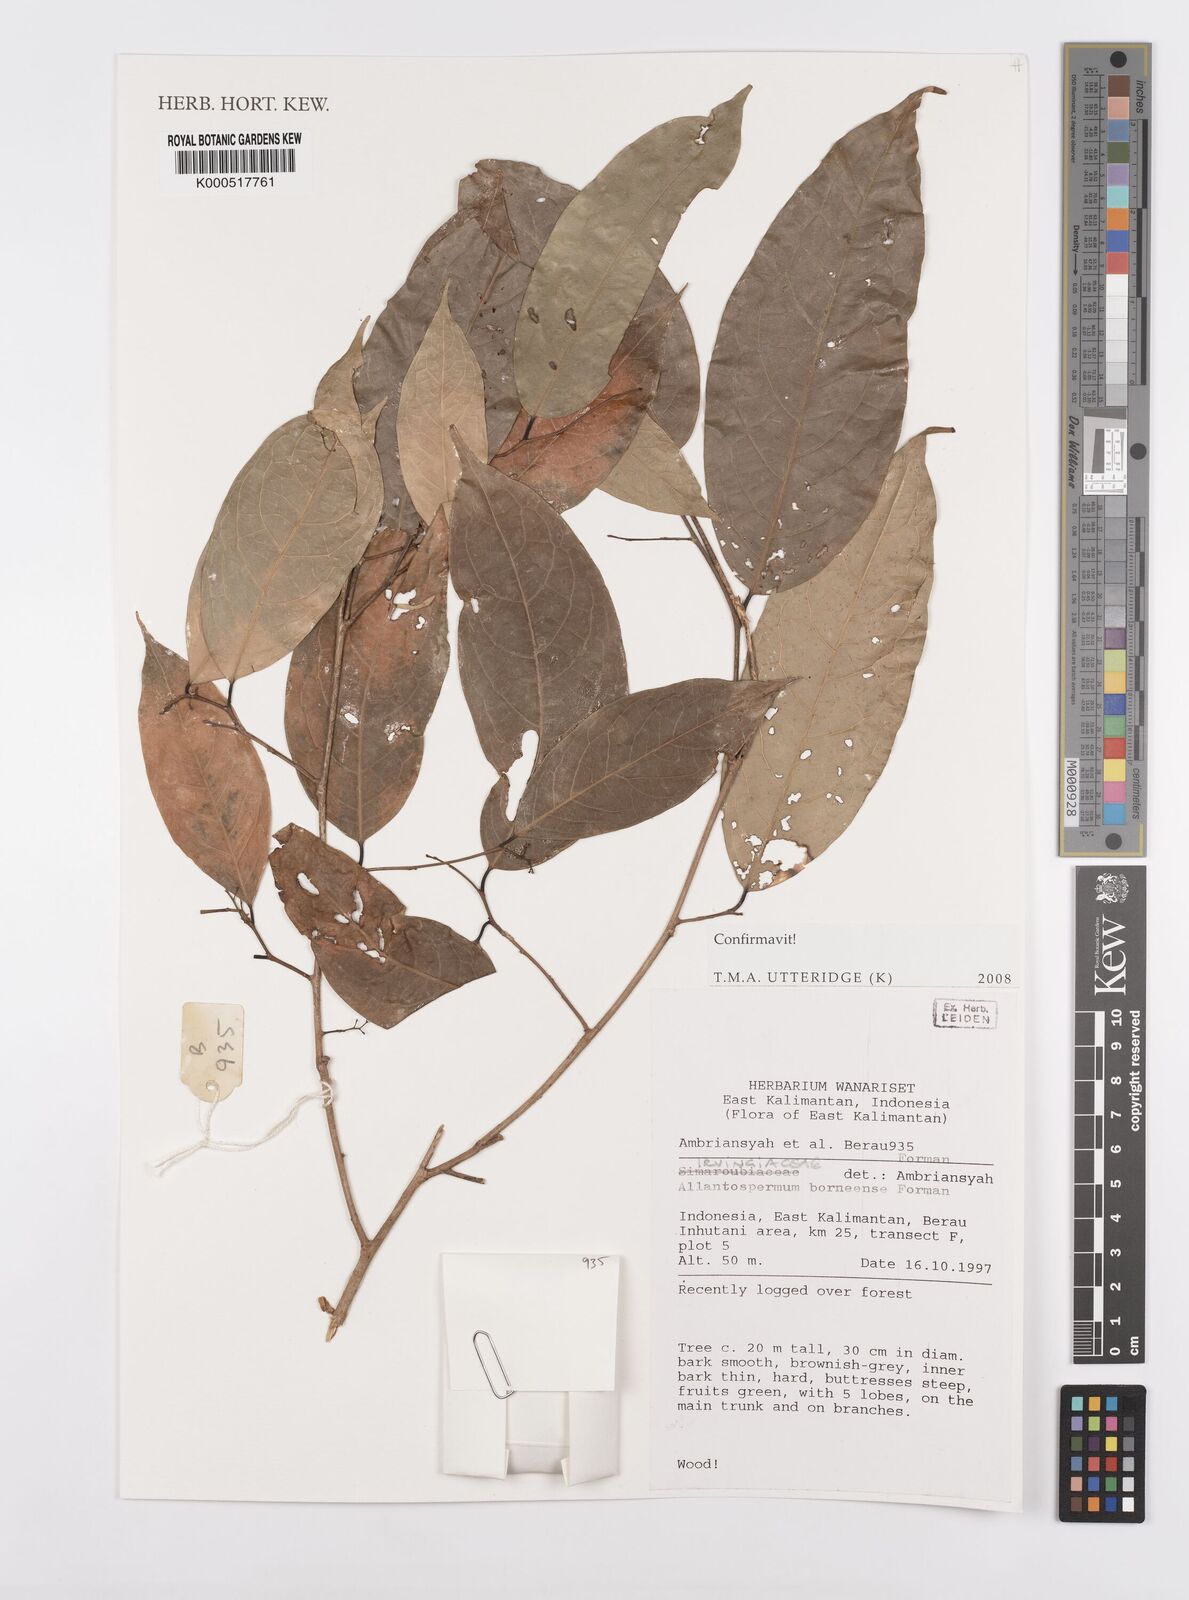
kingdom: Plantae
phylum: Tracheophyta
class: Magnoliopsida
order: Malpighiales
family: Ixonanthaceae
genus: Allantospermum
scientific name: Allantospermum borneense
